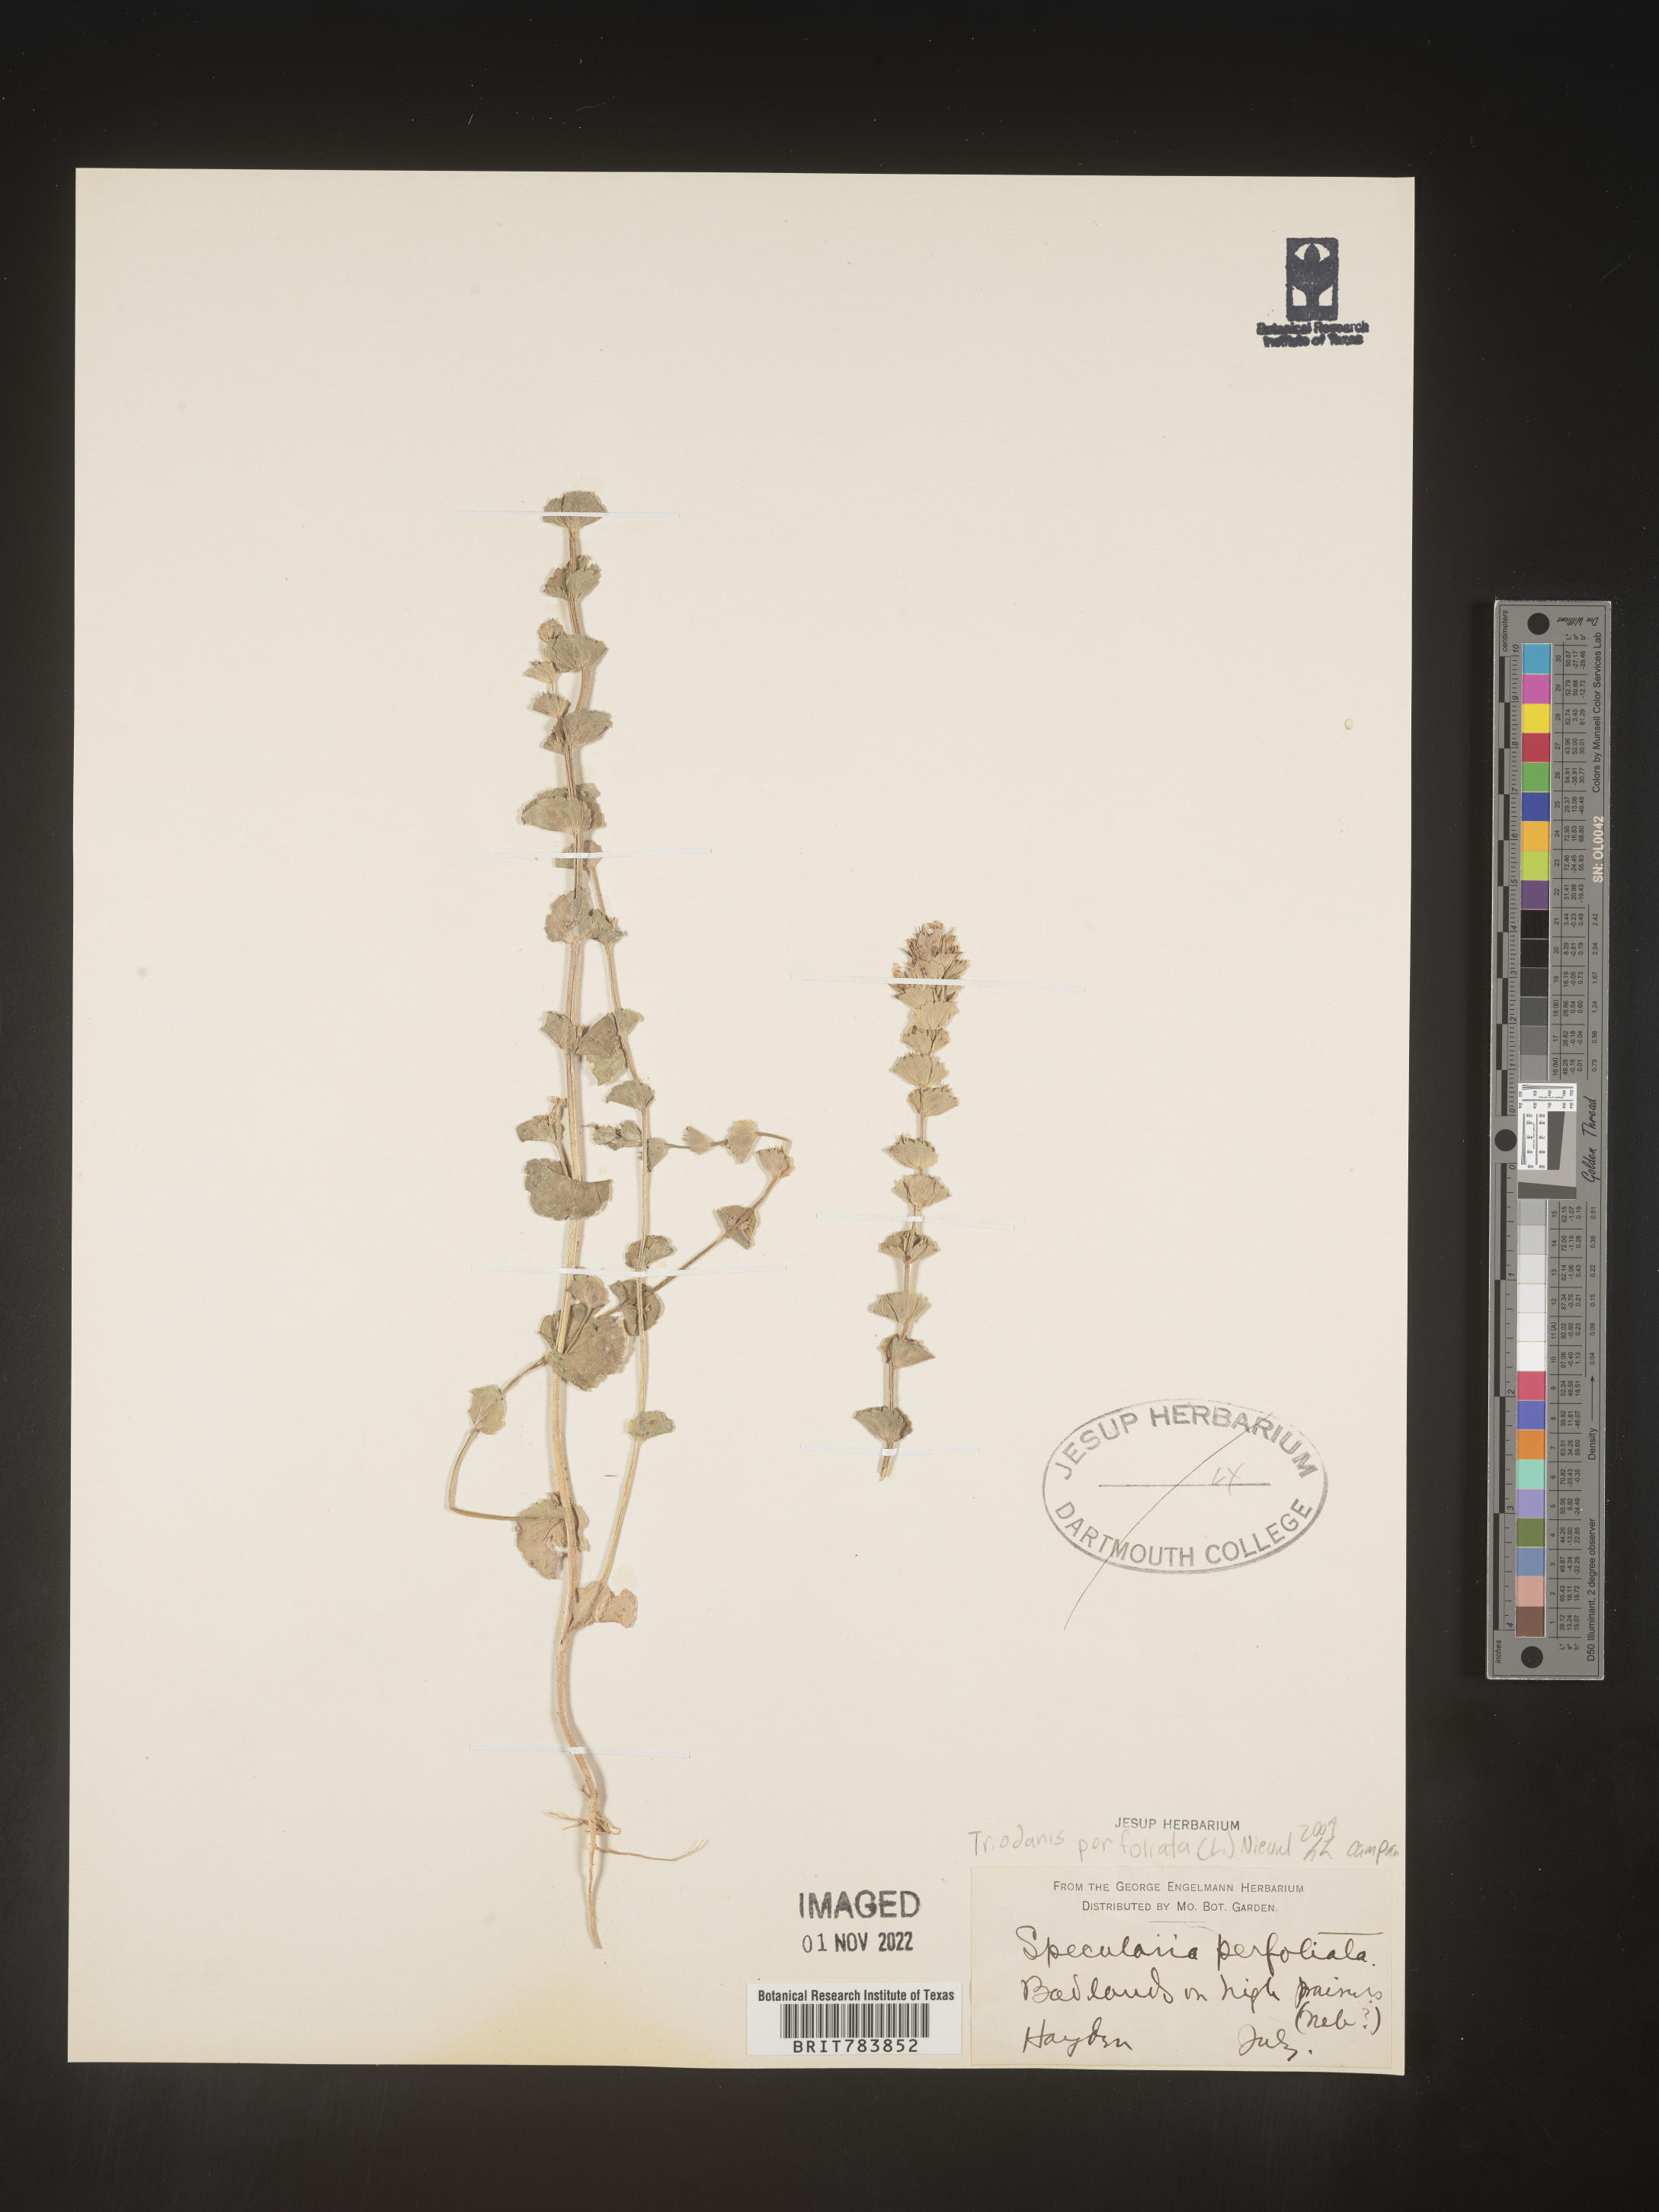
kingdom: Plantae
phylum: Tracheophyta
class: Magnoliopsida
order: Asterales
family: Campanulaceae
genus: Triodanis
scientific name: Triodanis perfoliata
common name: Clasping venus' looking-glass
